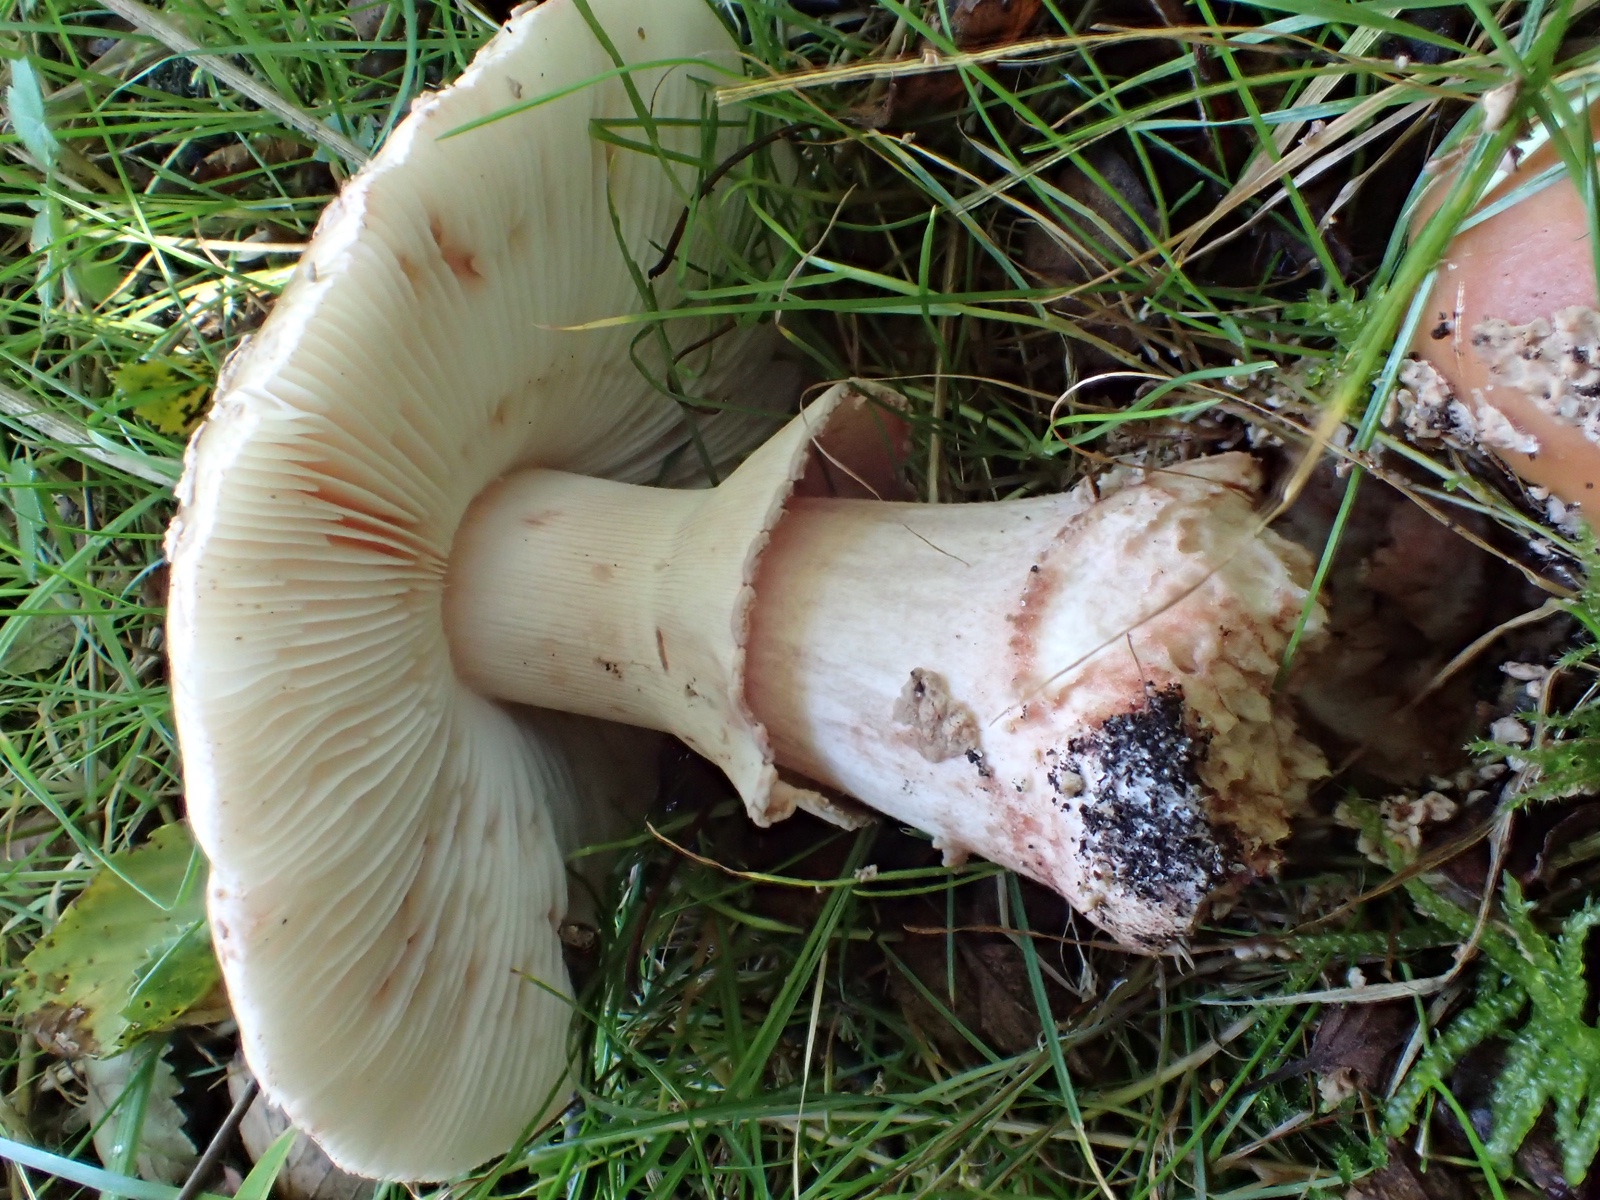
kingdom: Fungi
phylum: Basidiomycota
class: Agaricomycetes
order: Agaricales
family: Amanitaceae
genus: Amanita
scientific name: Amanita rubescens
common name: rødmende fluesvamp
